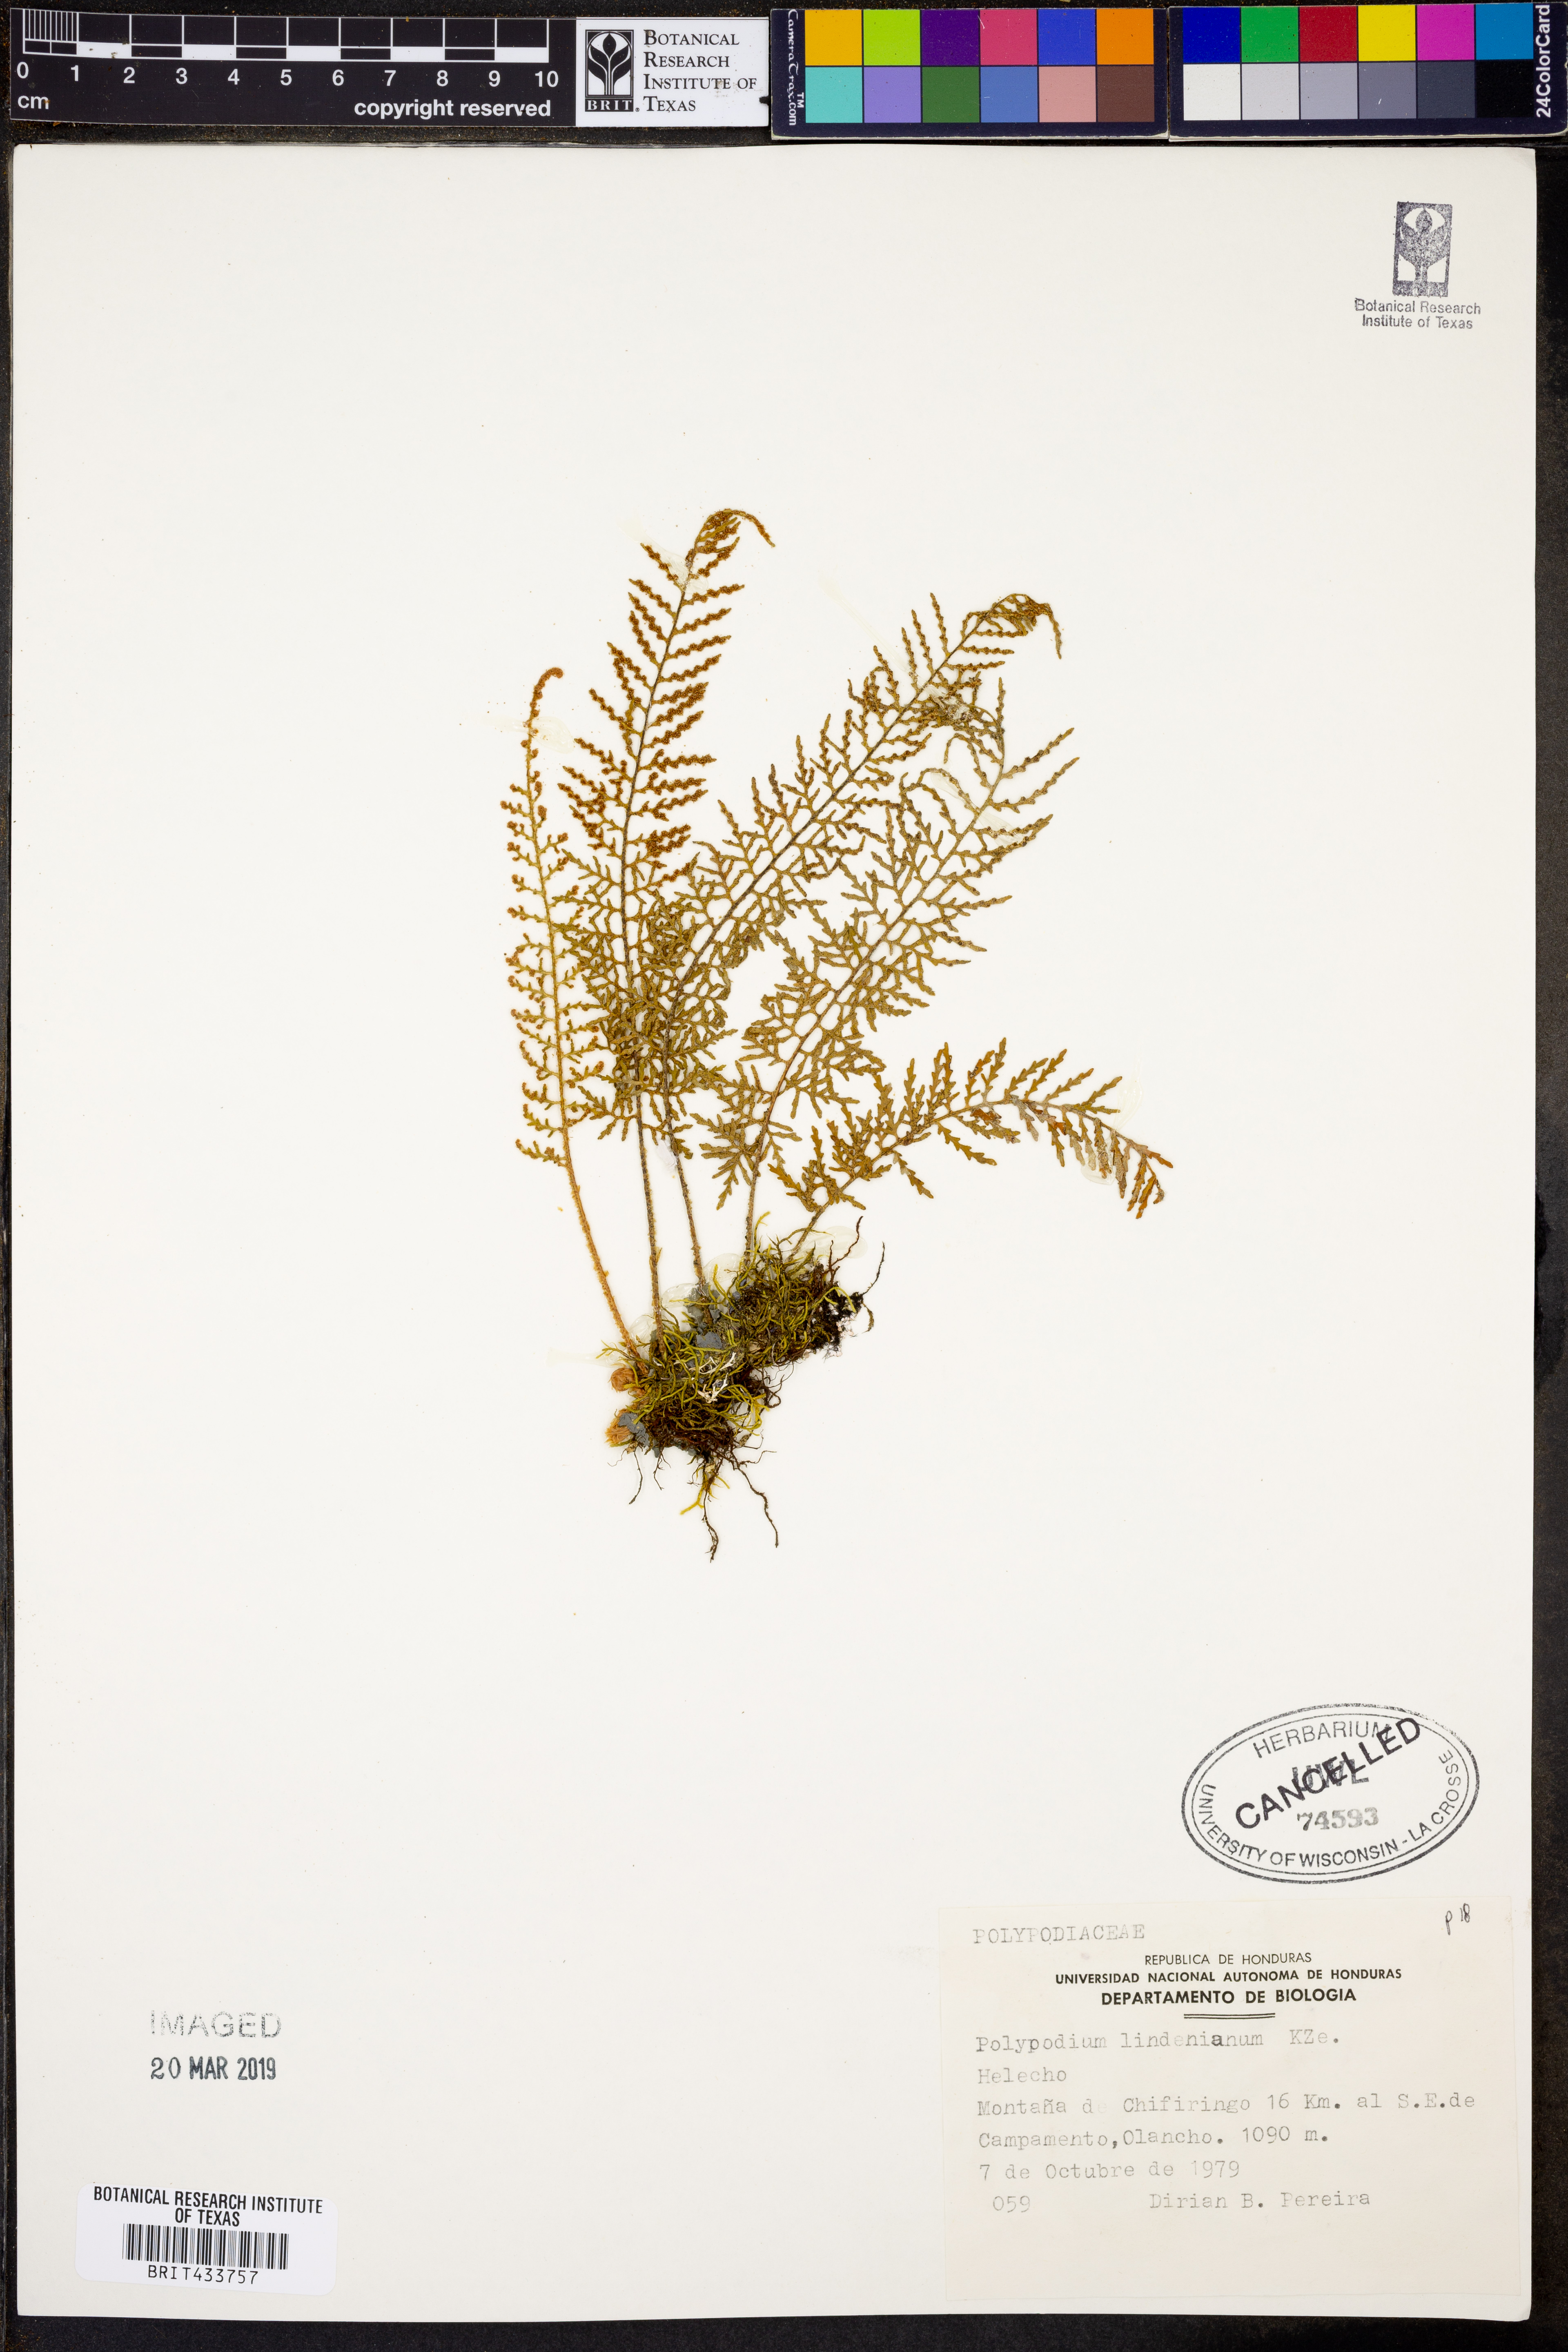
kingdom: Plantae
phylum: Tracheophyta
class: Polypodiopsida
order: Polypodiales
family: Polypodiaceae
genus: Pleopeltis
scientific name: Pleopeltis lindeniana
